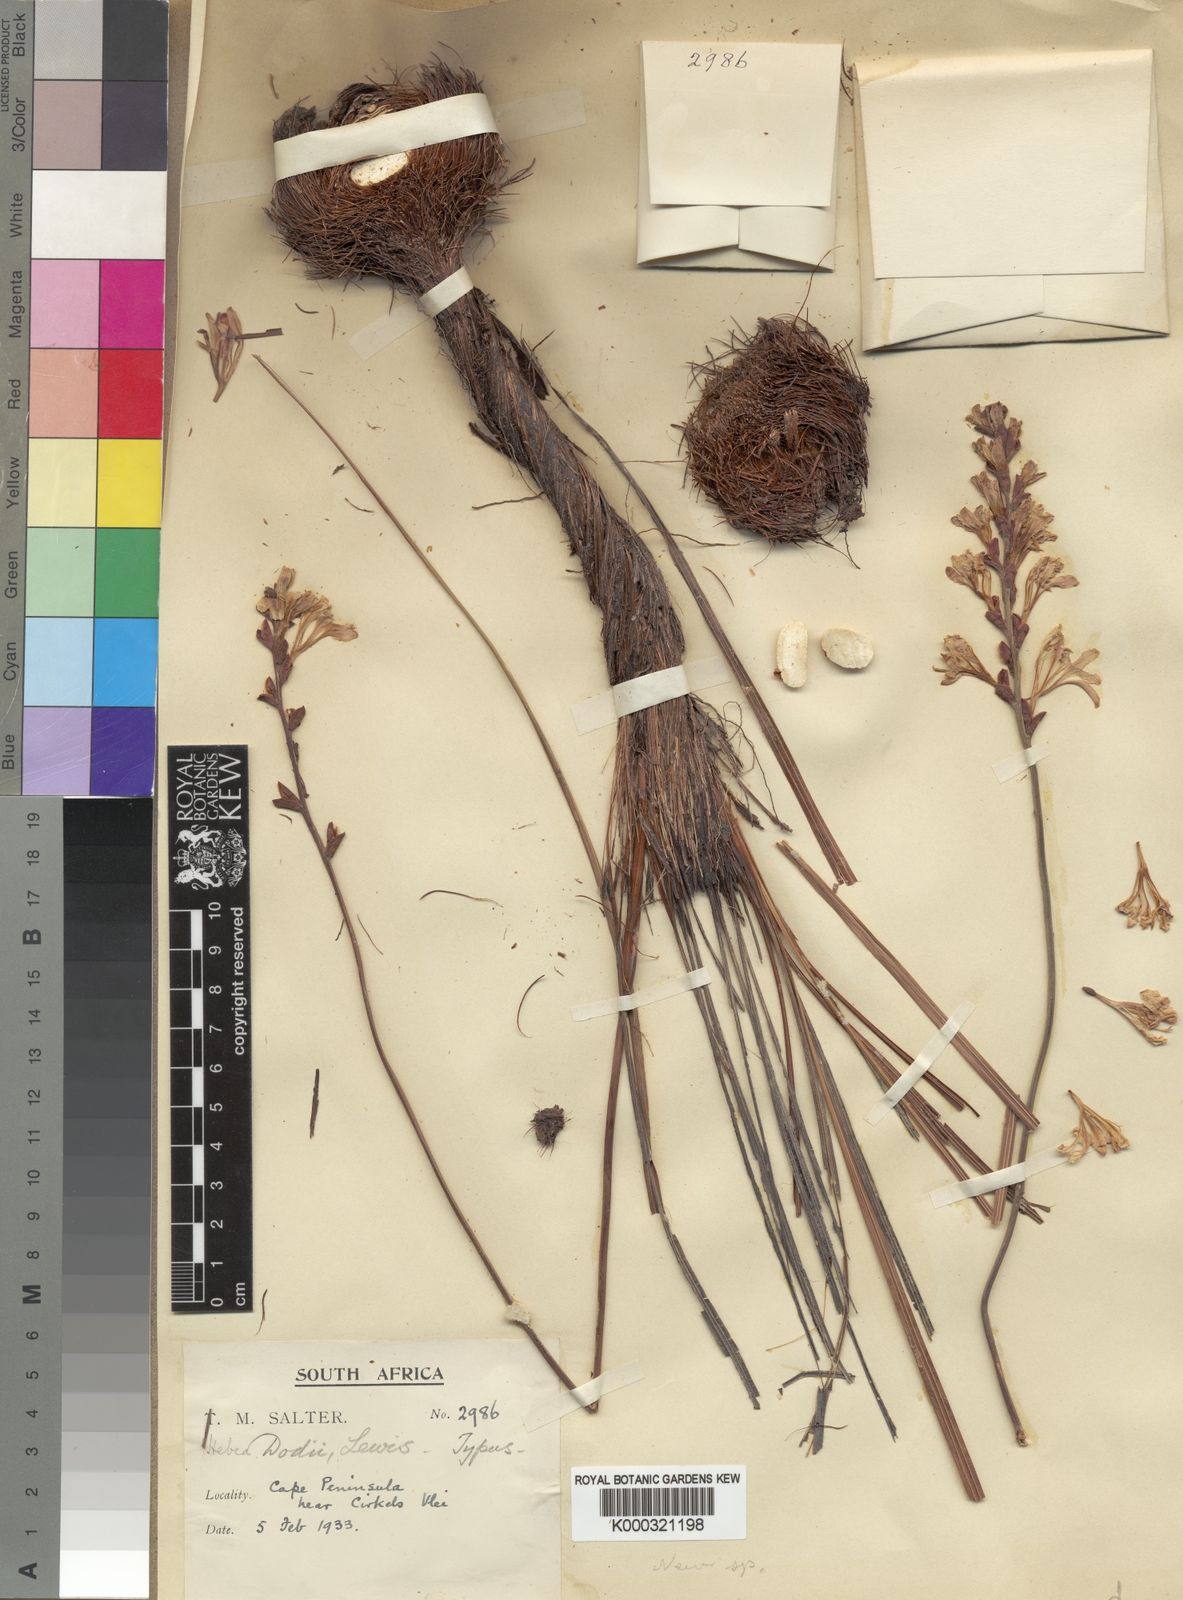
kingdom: Plantae
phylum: Tracheophyta
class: Liliopsida
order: Asparagales
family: Iridaceae
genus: Tritoniopsis
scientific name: Tritoniopsis dodii
